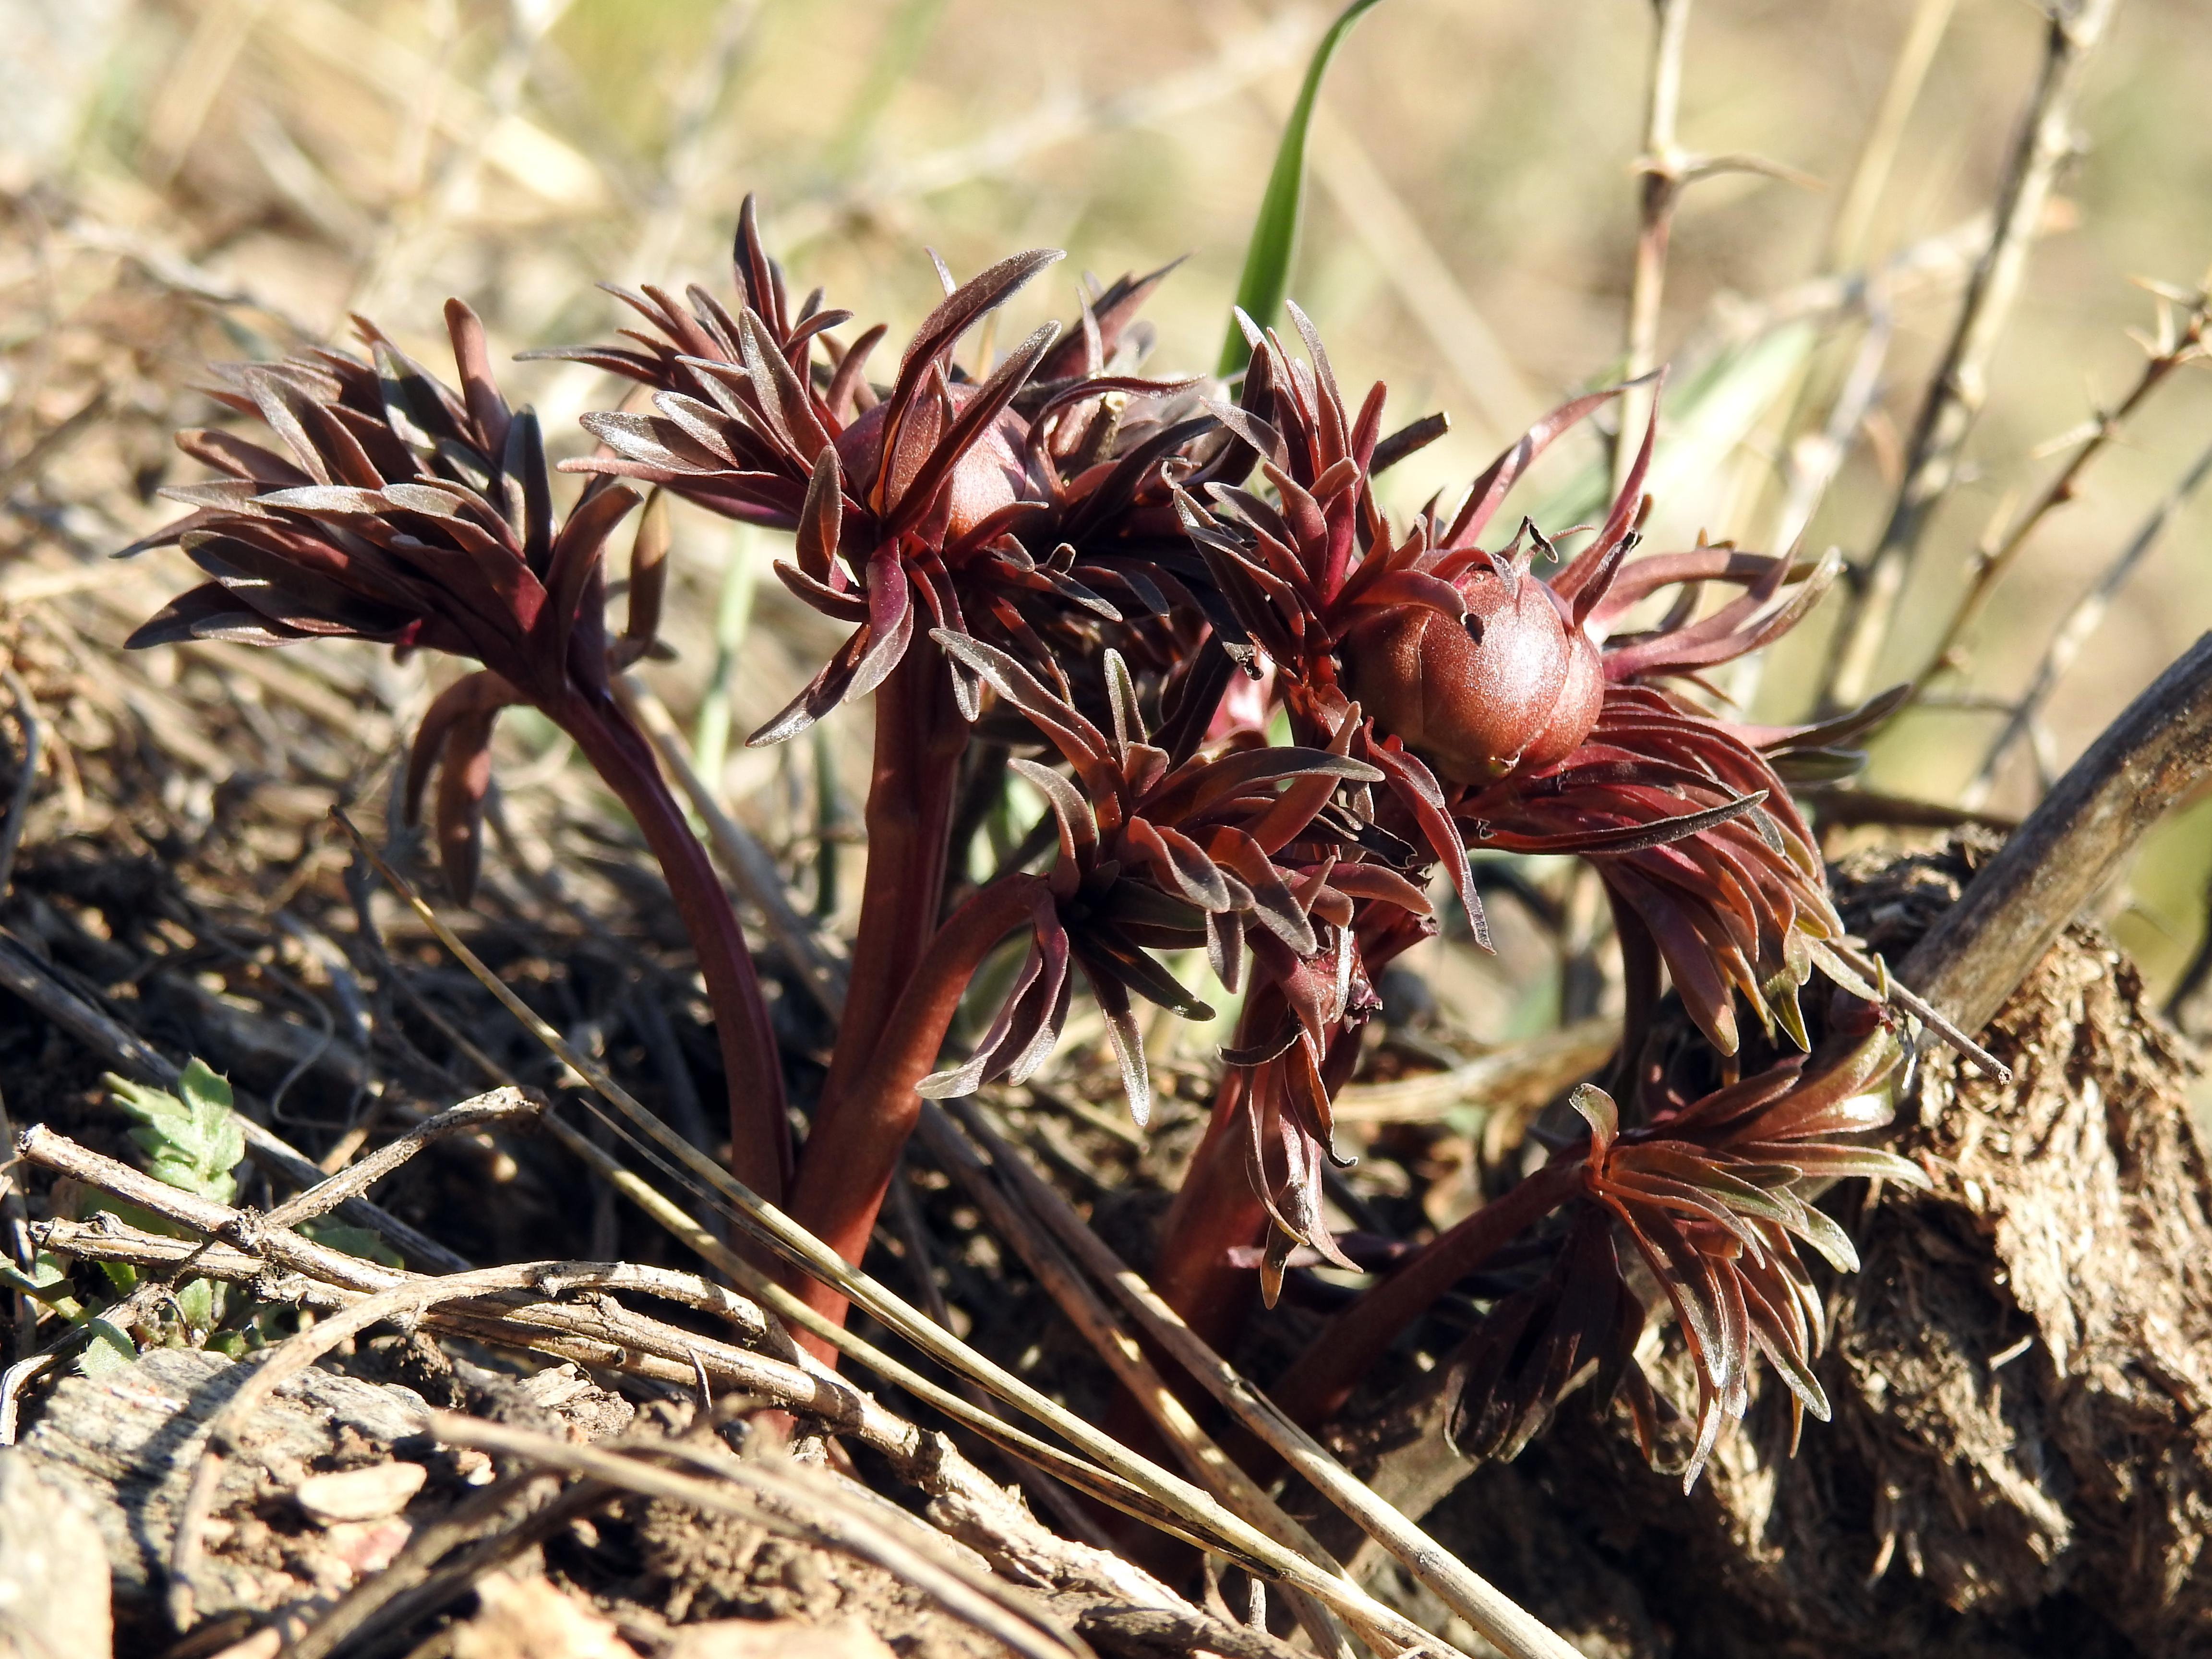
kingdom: Plantae
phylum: Tracheophyta
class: Magnoliopsida
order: Saxifragales
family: Paeoniaceae
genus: Paeonia
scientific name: Paeonia
